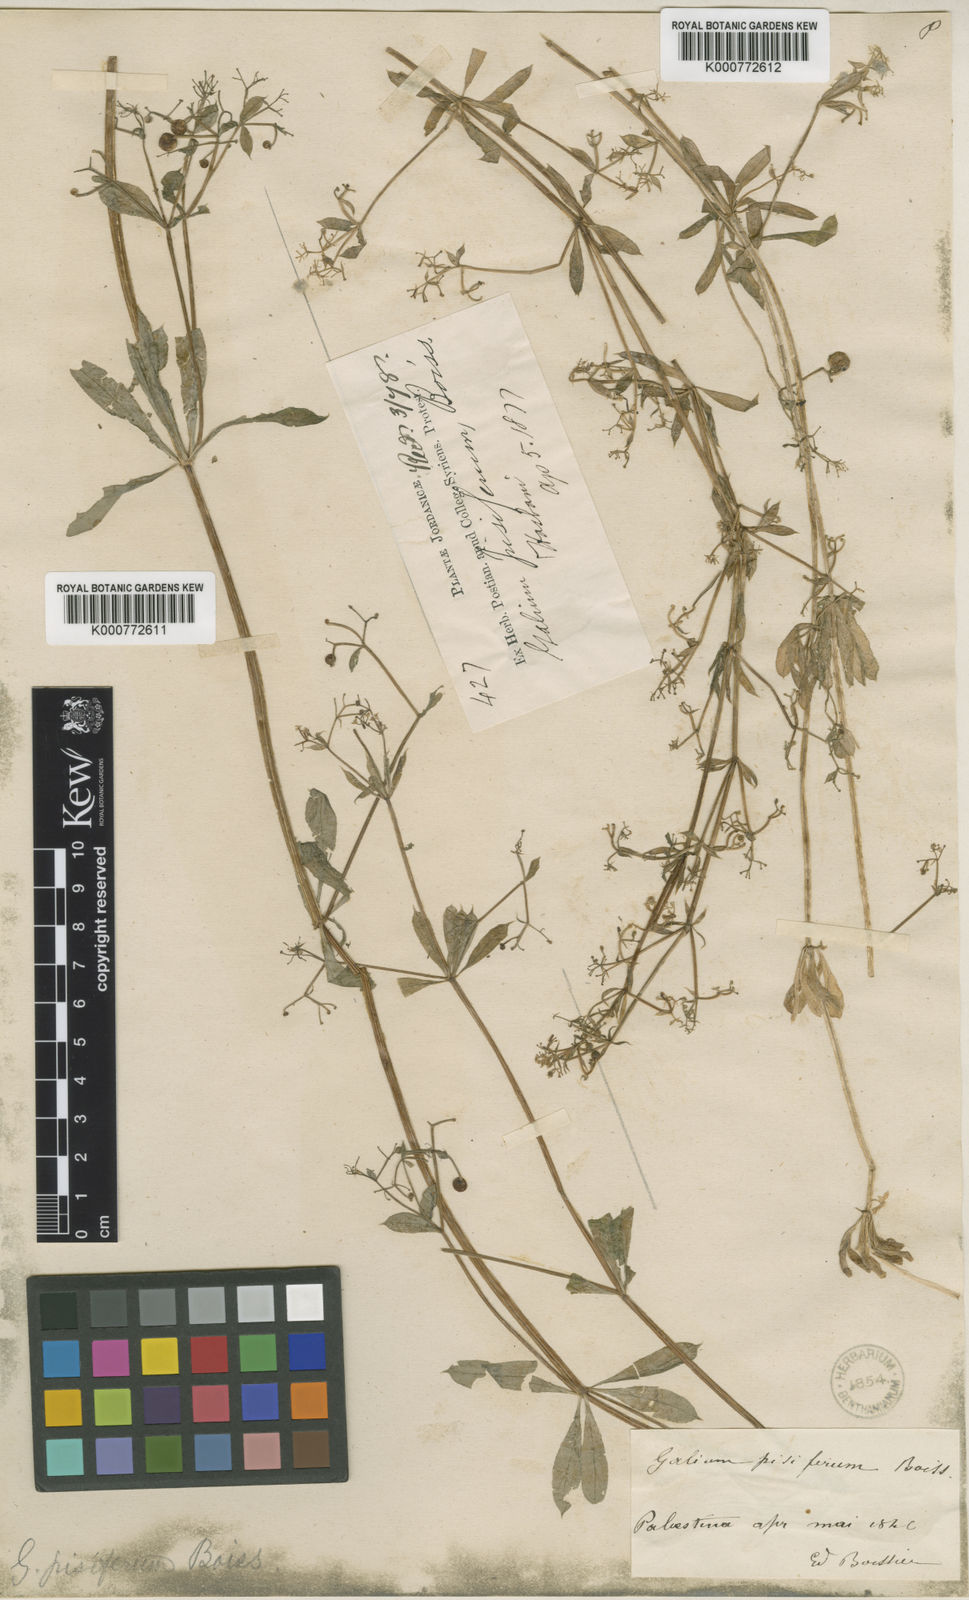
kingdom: Plantae
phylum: Tracheophyta
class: Magnoliopsida
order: Gentianales
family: Rubiaceae
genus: Galium
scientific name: Galium pisiferum
